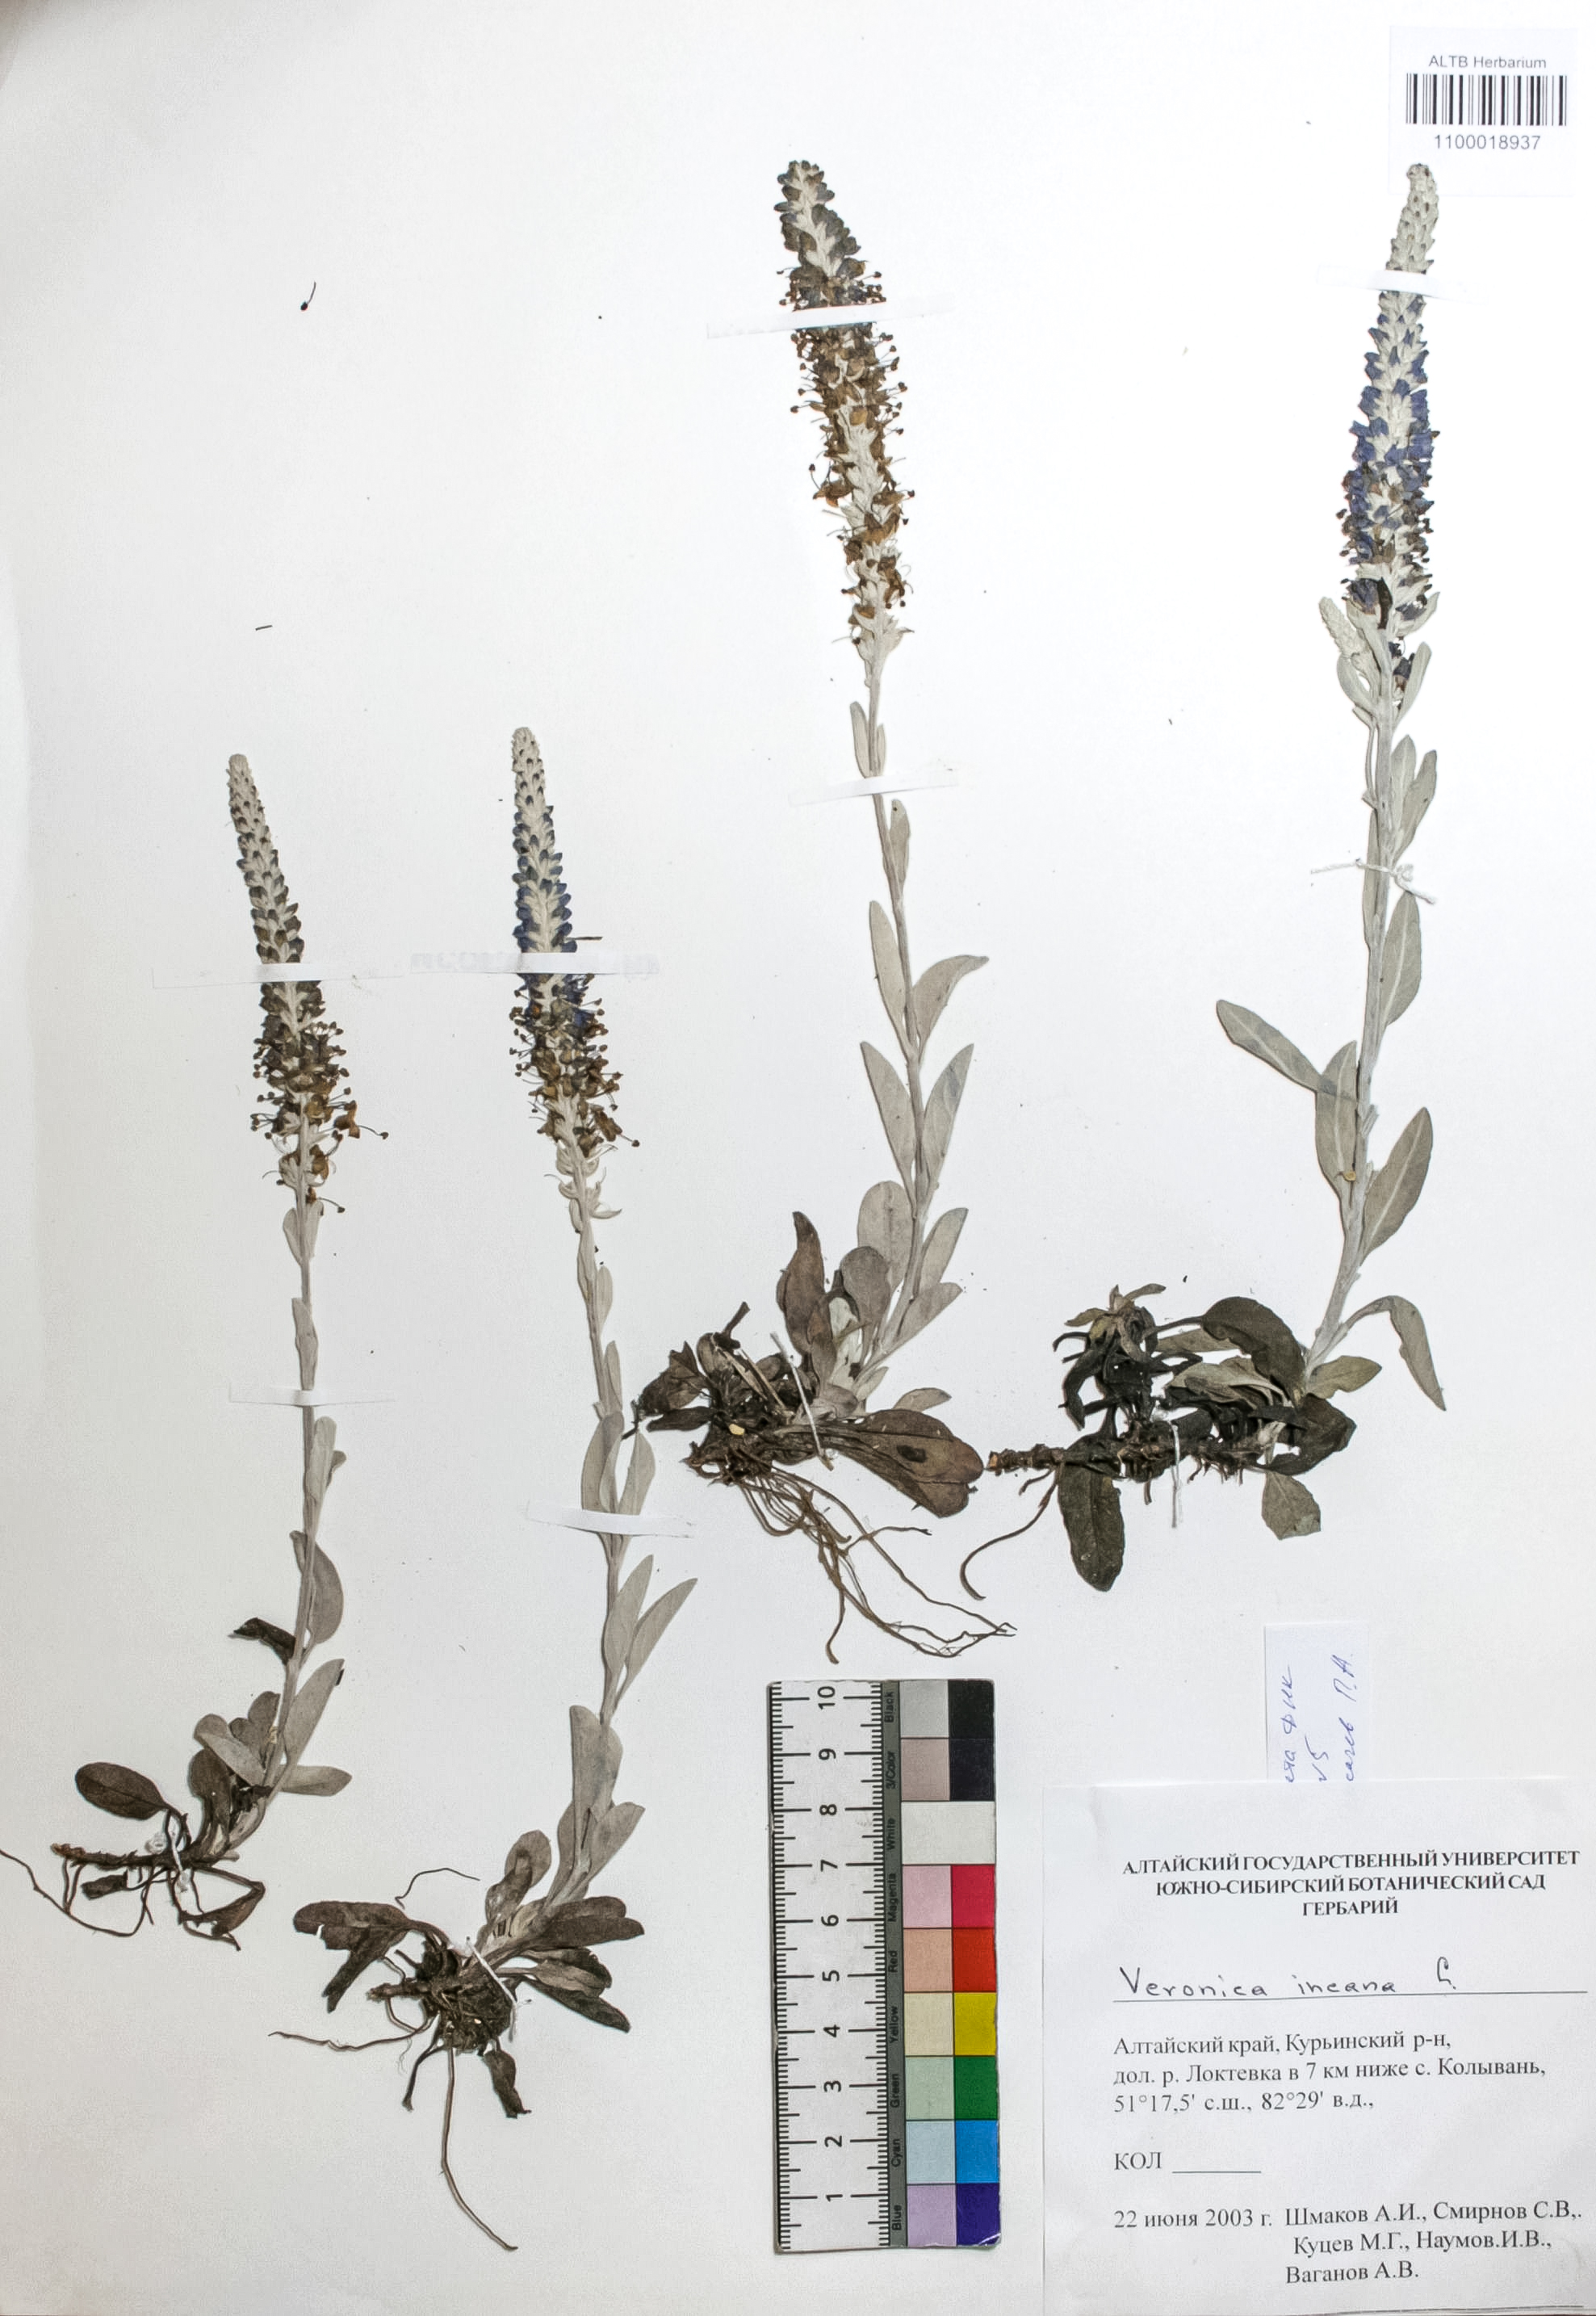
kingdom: Plantae
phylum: Tracheophyta
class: Magnoliopsida
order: Lamiales
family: Plantaginaceae
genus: Veronica
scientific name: Veronica incana
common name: Silver speedwell
